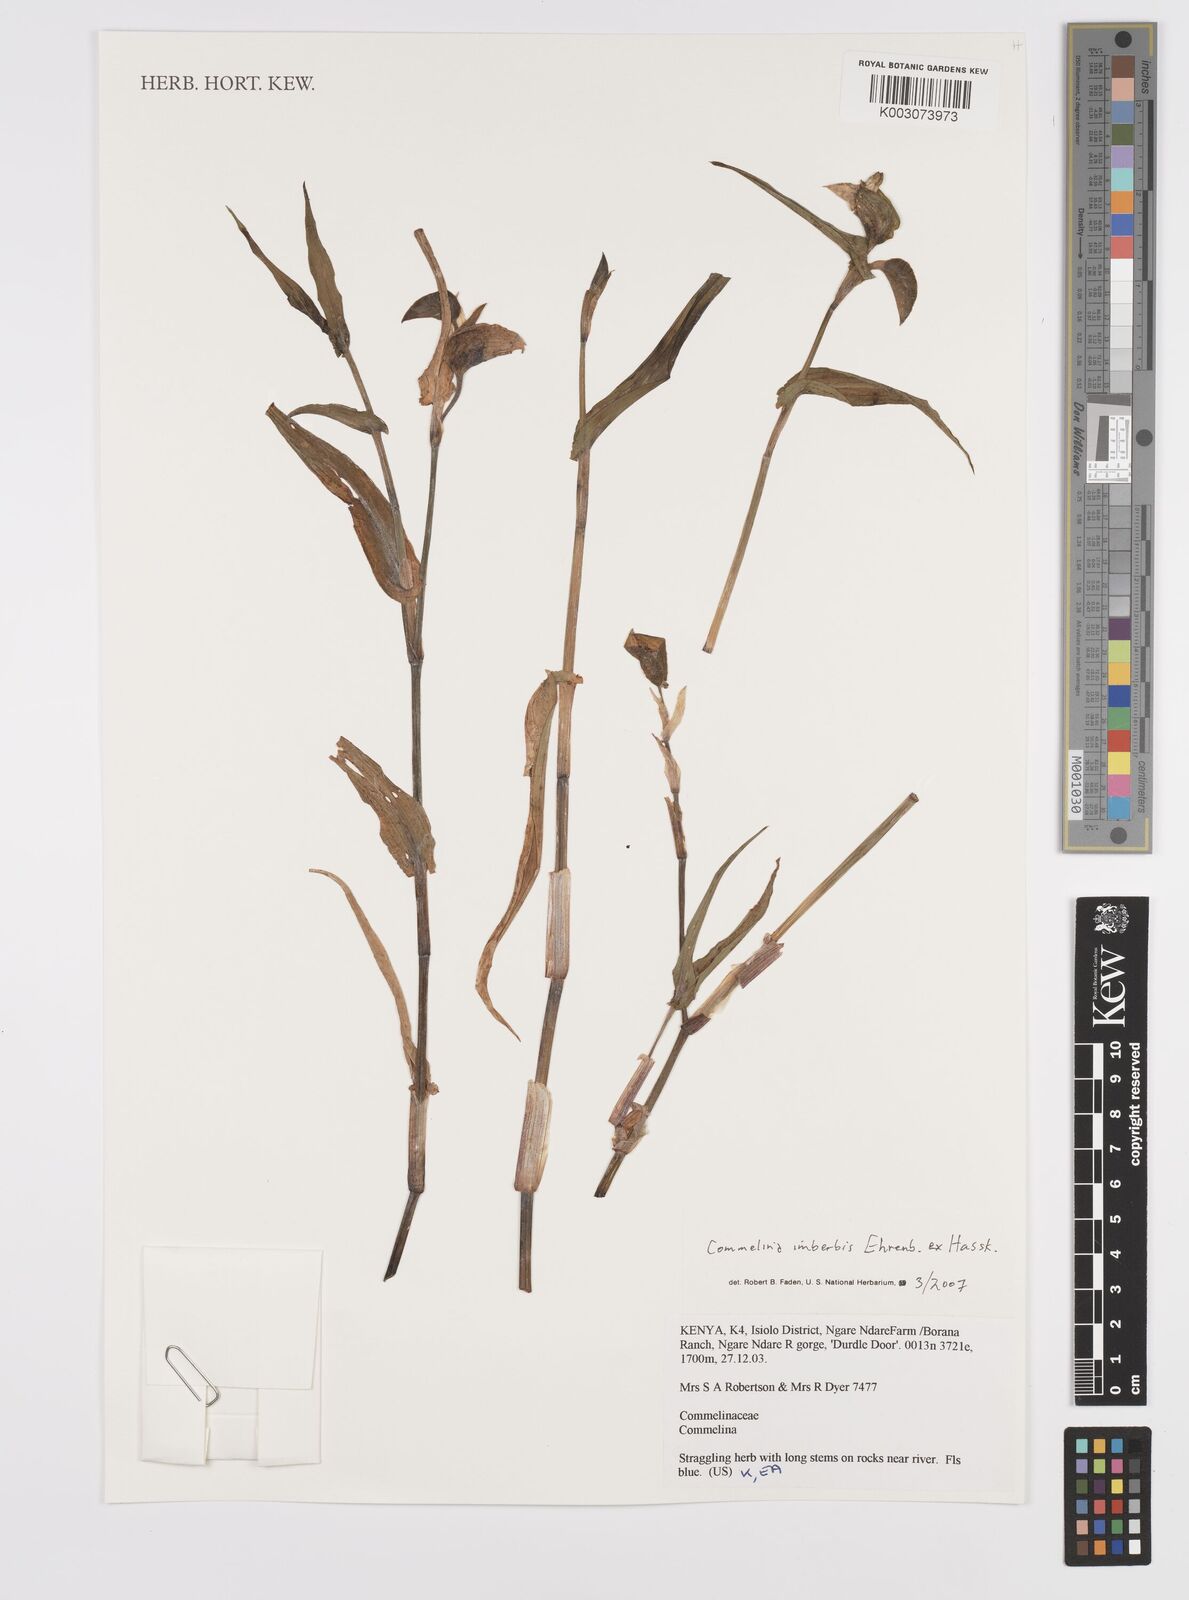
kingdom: Plantae
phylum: Tracheophyta
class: Liliopsida
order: Commelinales
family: Commelinaceae
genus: Commelina
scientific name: Commelina imberbis
